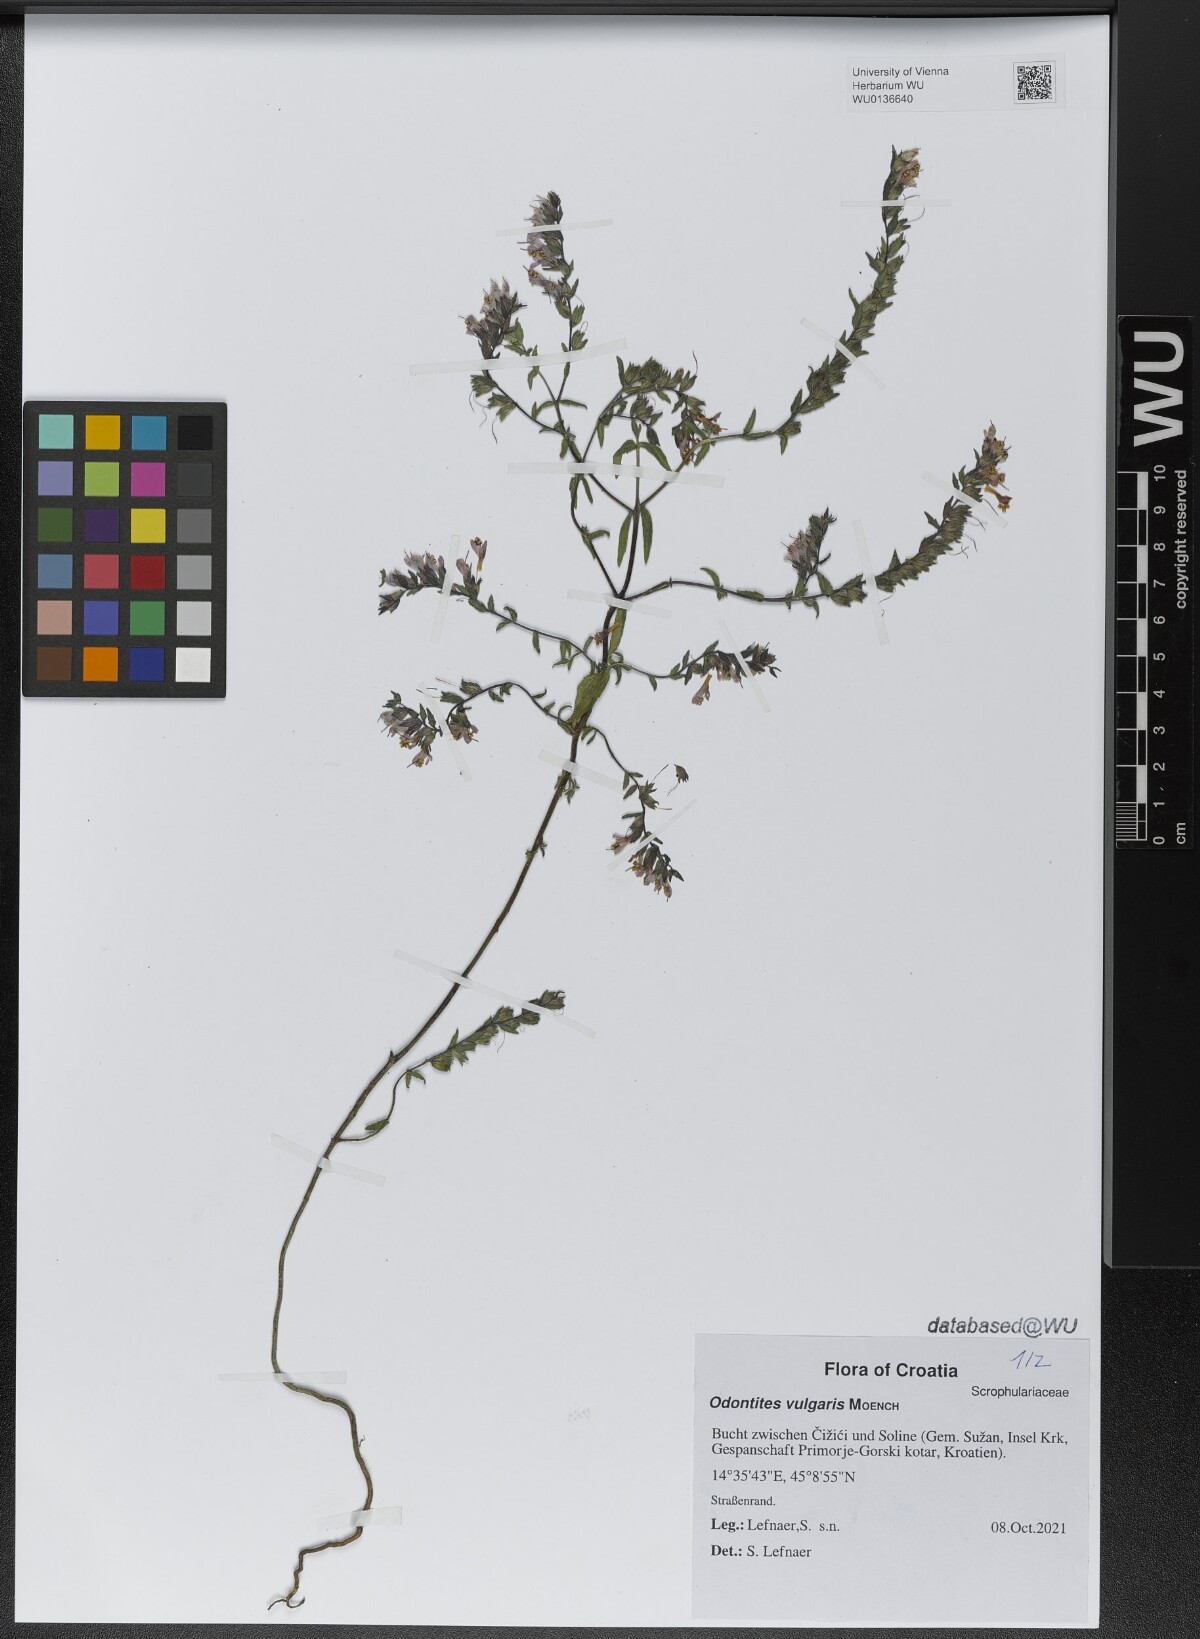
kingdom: Plantae
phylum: Tracheophyta
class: Magnoliopsida
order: Lamiales
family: Orobanchaceae
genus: Odontites
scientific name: Odontites vulgaris
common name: Broomrape
